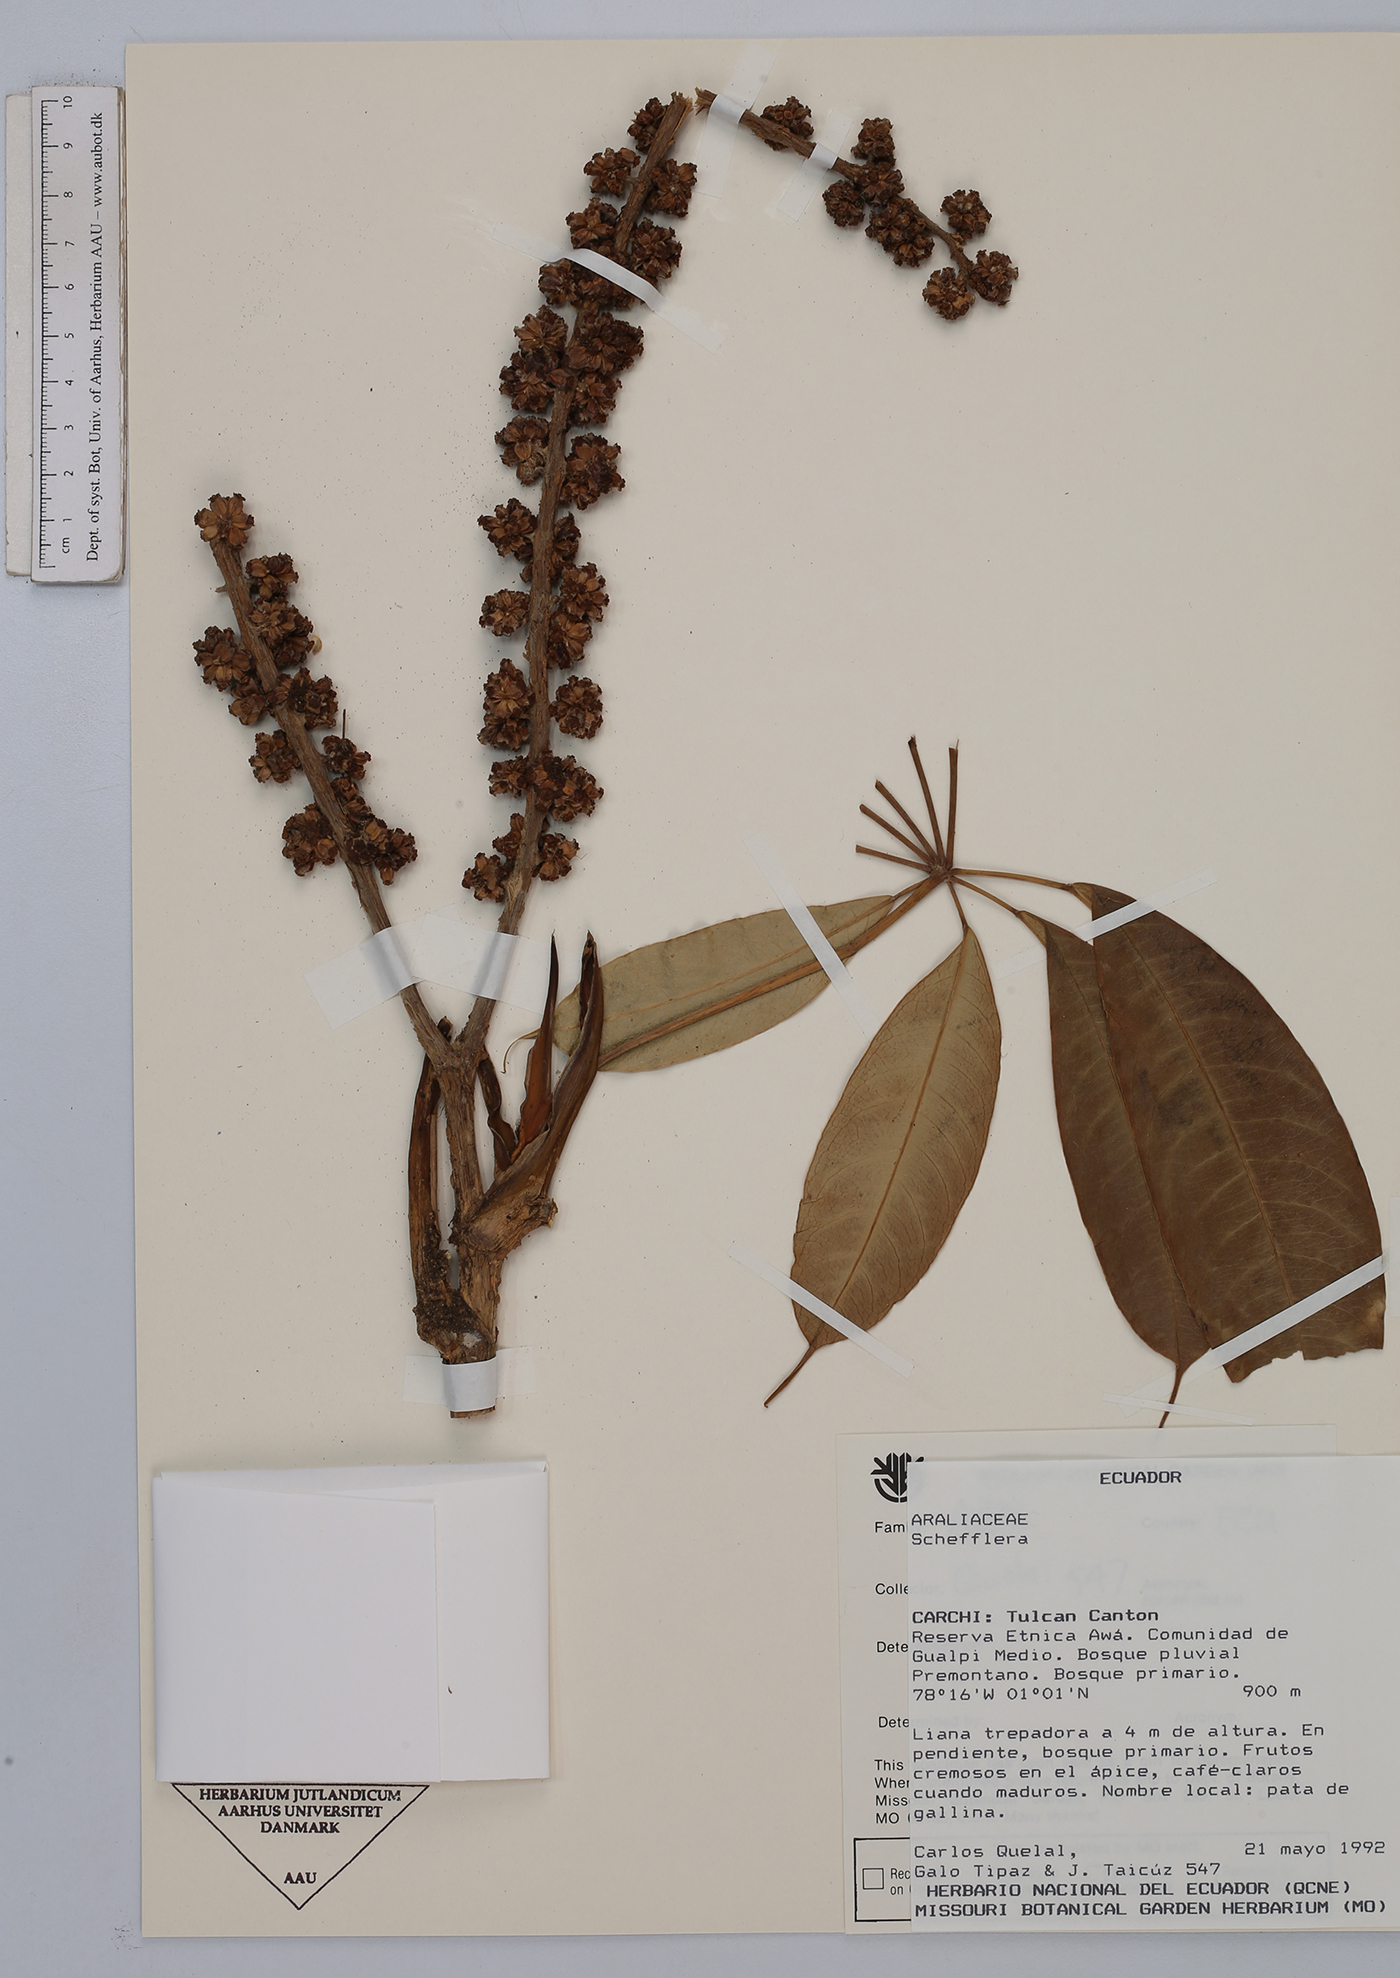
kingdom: Plantae
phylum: Tracheophyta
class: Magnoliopsida
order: Apiales
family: Araliaceae
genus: Sciodaphyllum
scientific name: Sciodaphyllum
